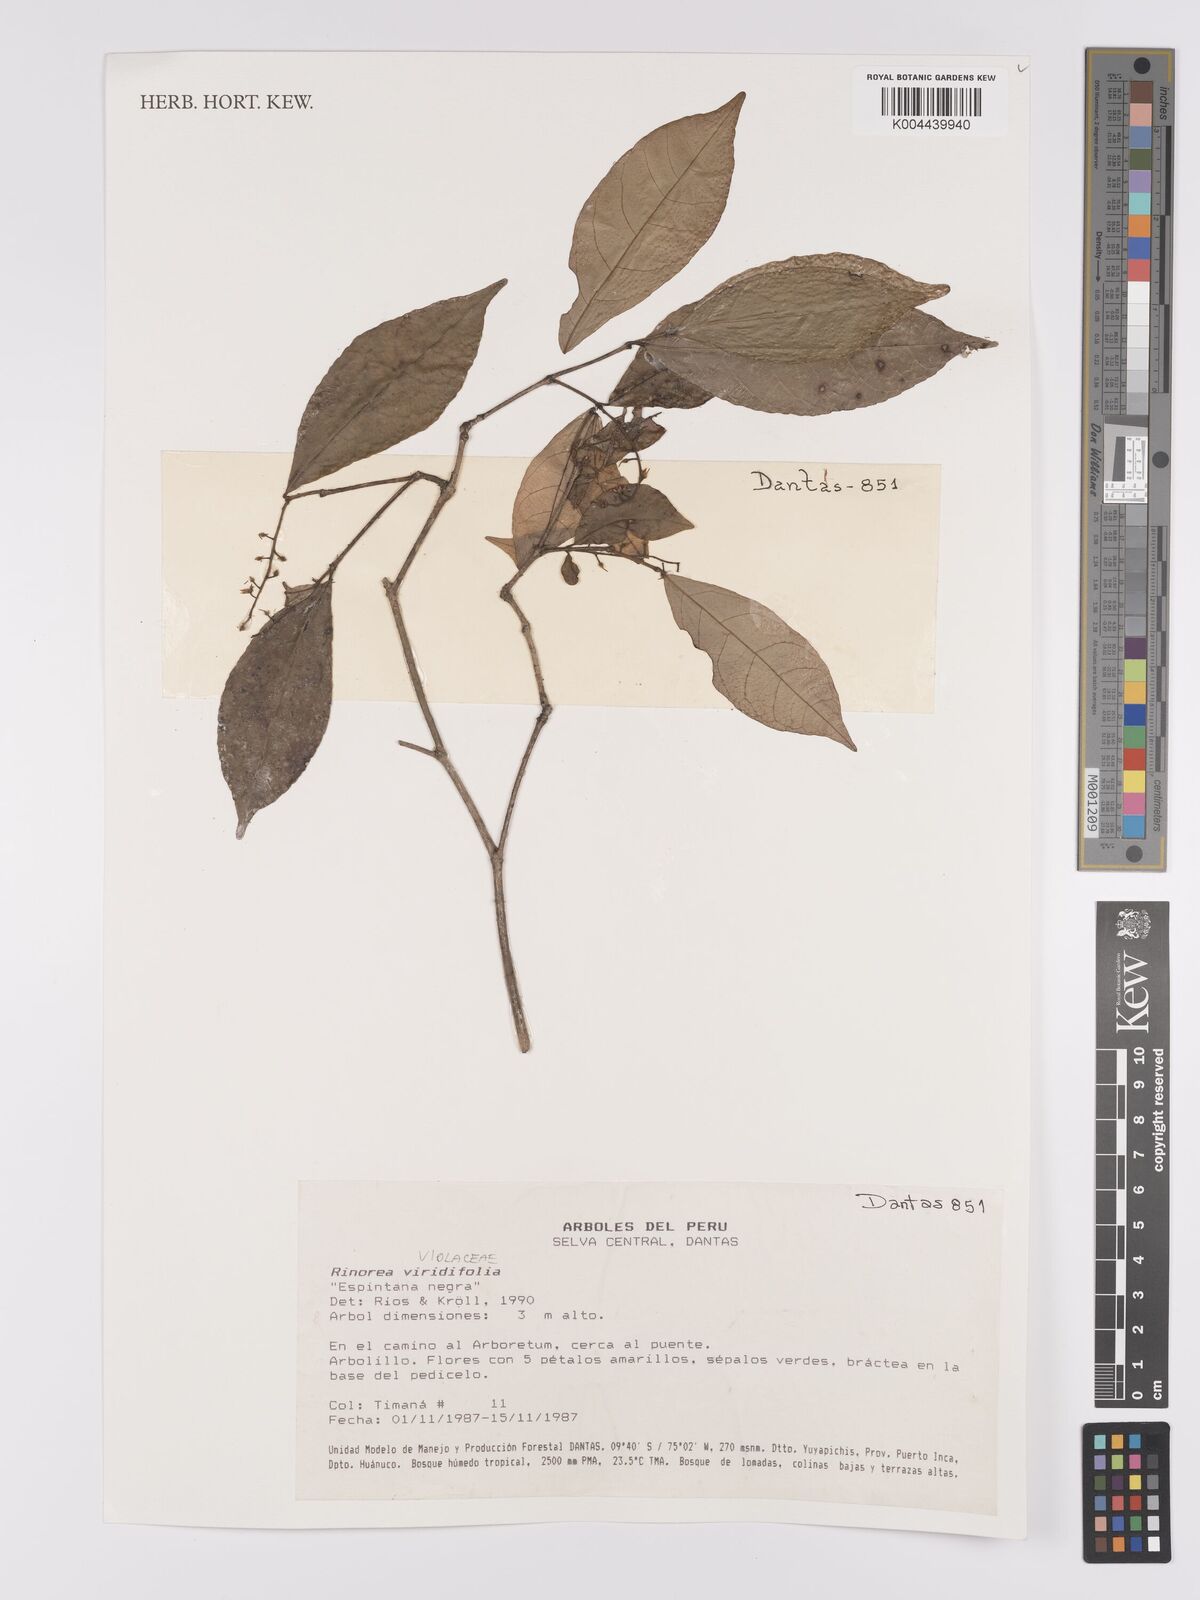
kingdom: Plantae
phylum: Tracheophyta
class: Magnoliopsida
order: Malpighiales
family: Violaceae
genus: Rinorea
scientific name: Rinorea viridifolia
